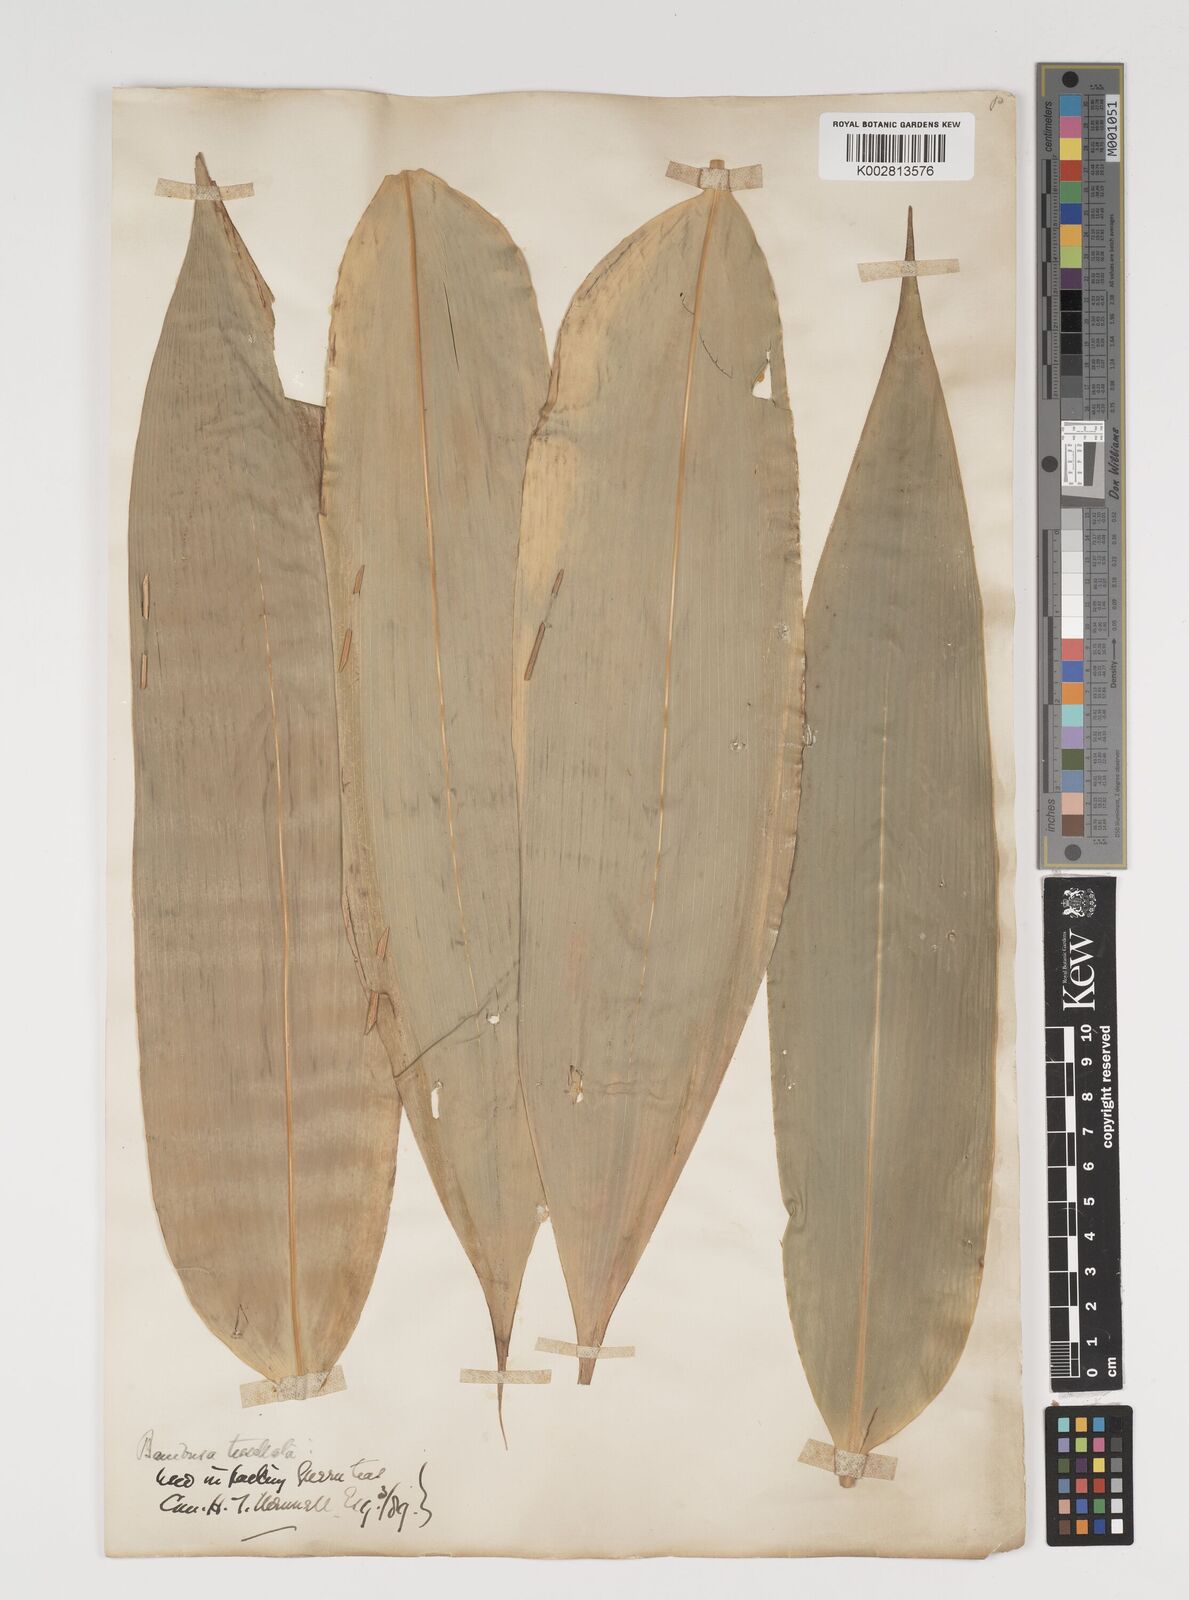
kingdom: Plantae
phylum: Tracheophyta
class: Liliopsida
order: Poales
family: Poaceae
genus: Indocalamus
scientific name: Indocalamus tessellatus
